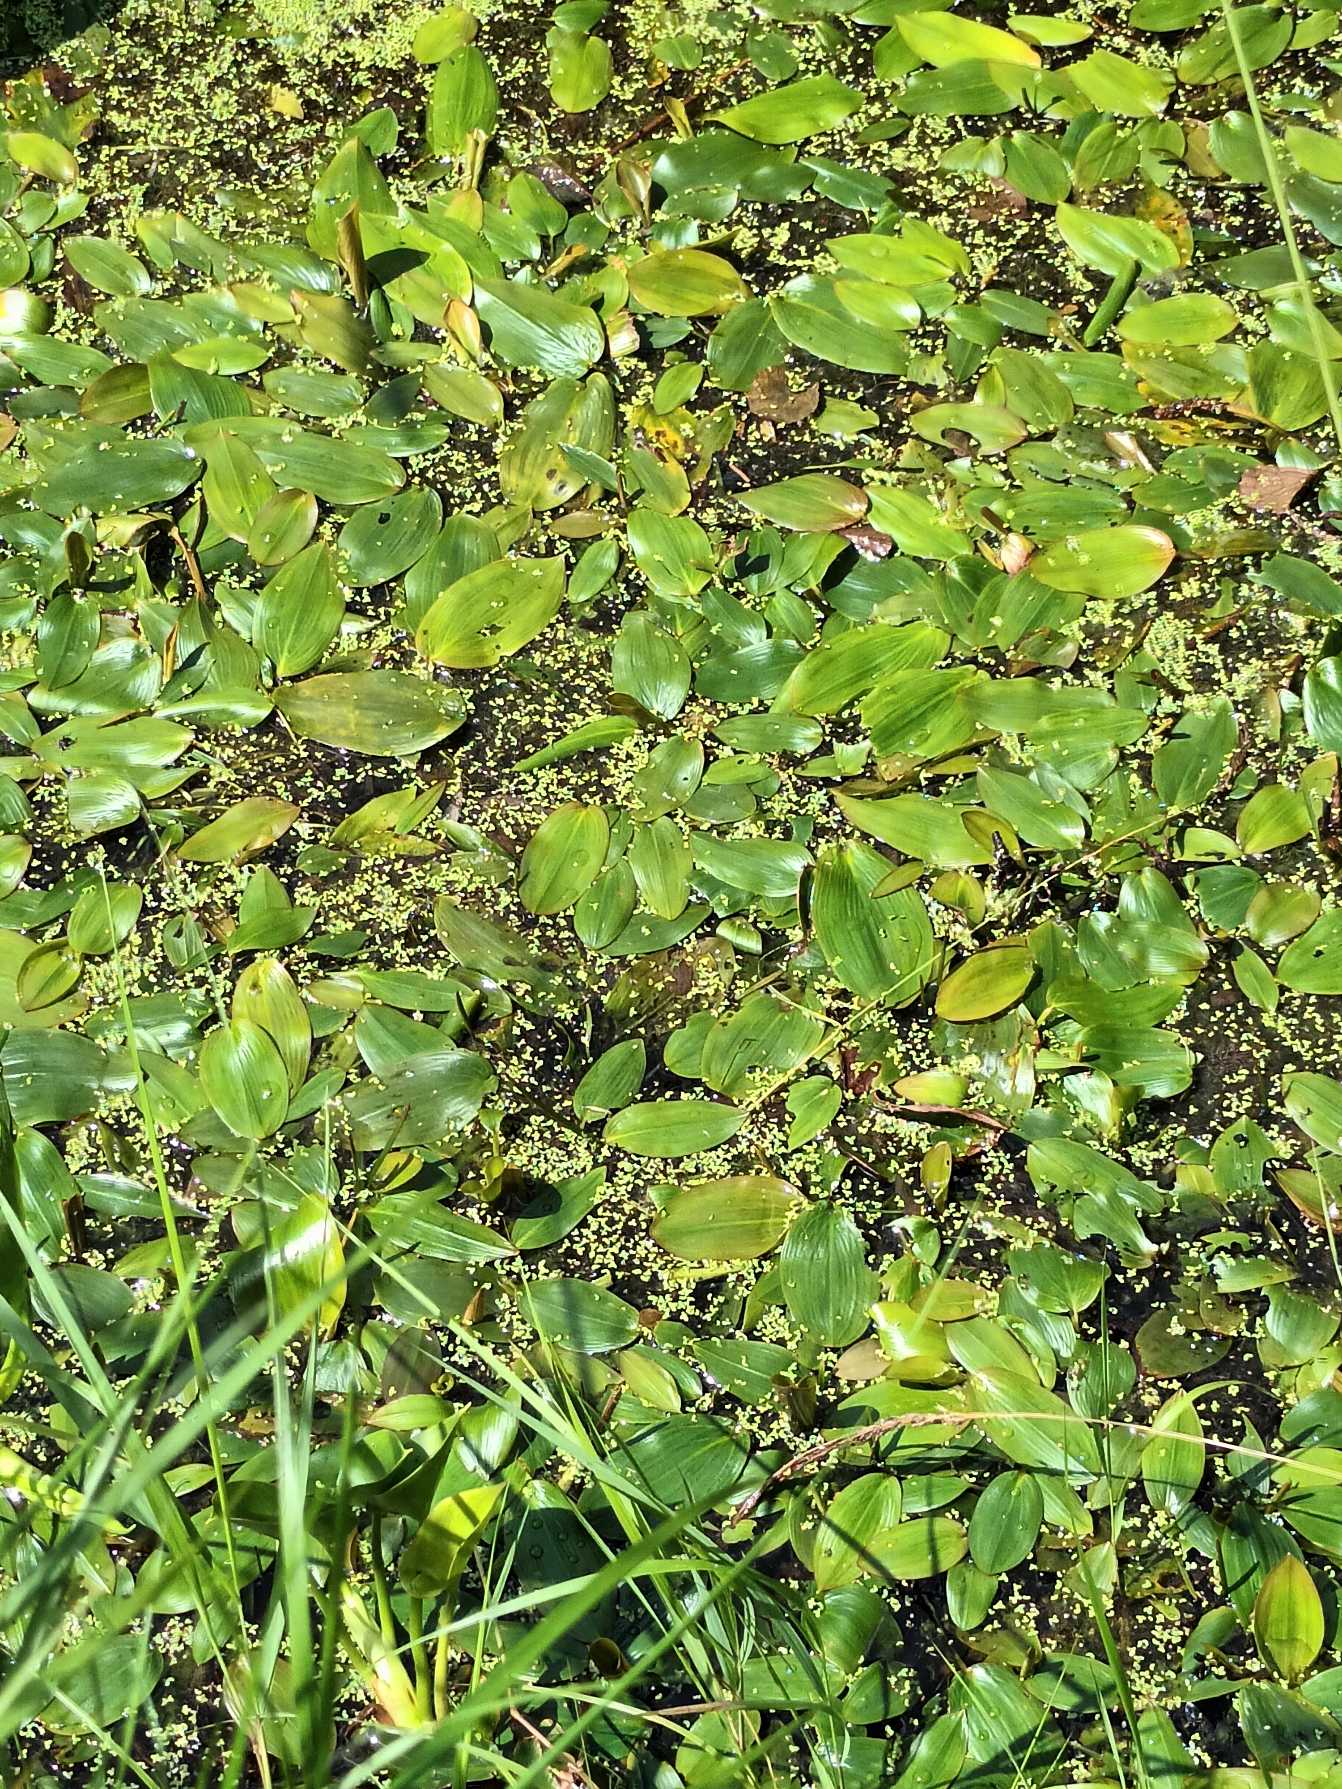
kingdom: Plantae
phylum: Tracheophyta
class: Liliopsida
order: Alismatales
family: Potamogetonaceae
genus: Potamogeton
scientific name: Potamogeton natans
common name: Svømmende vandaks
